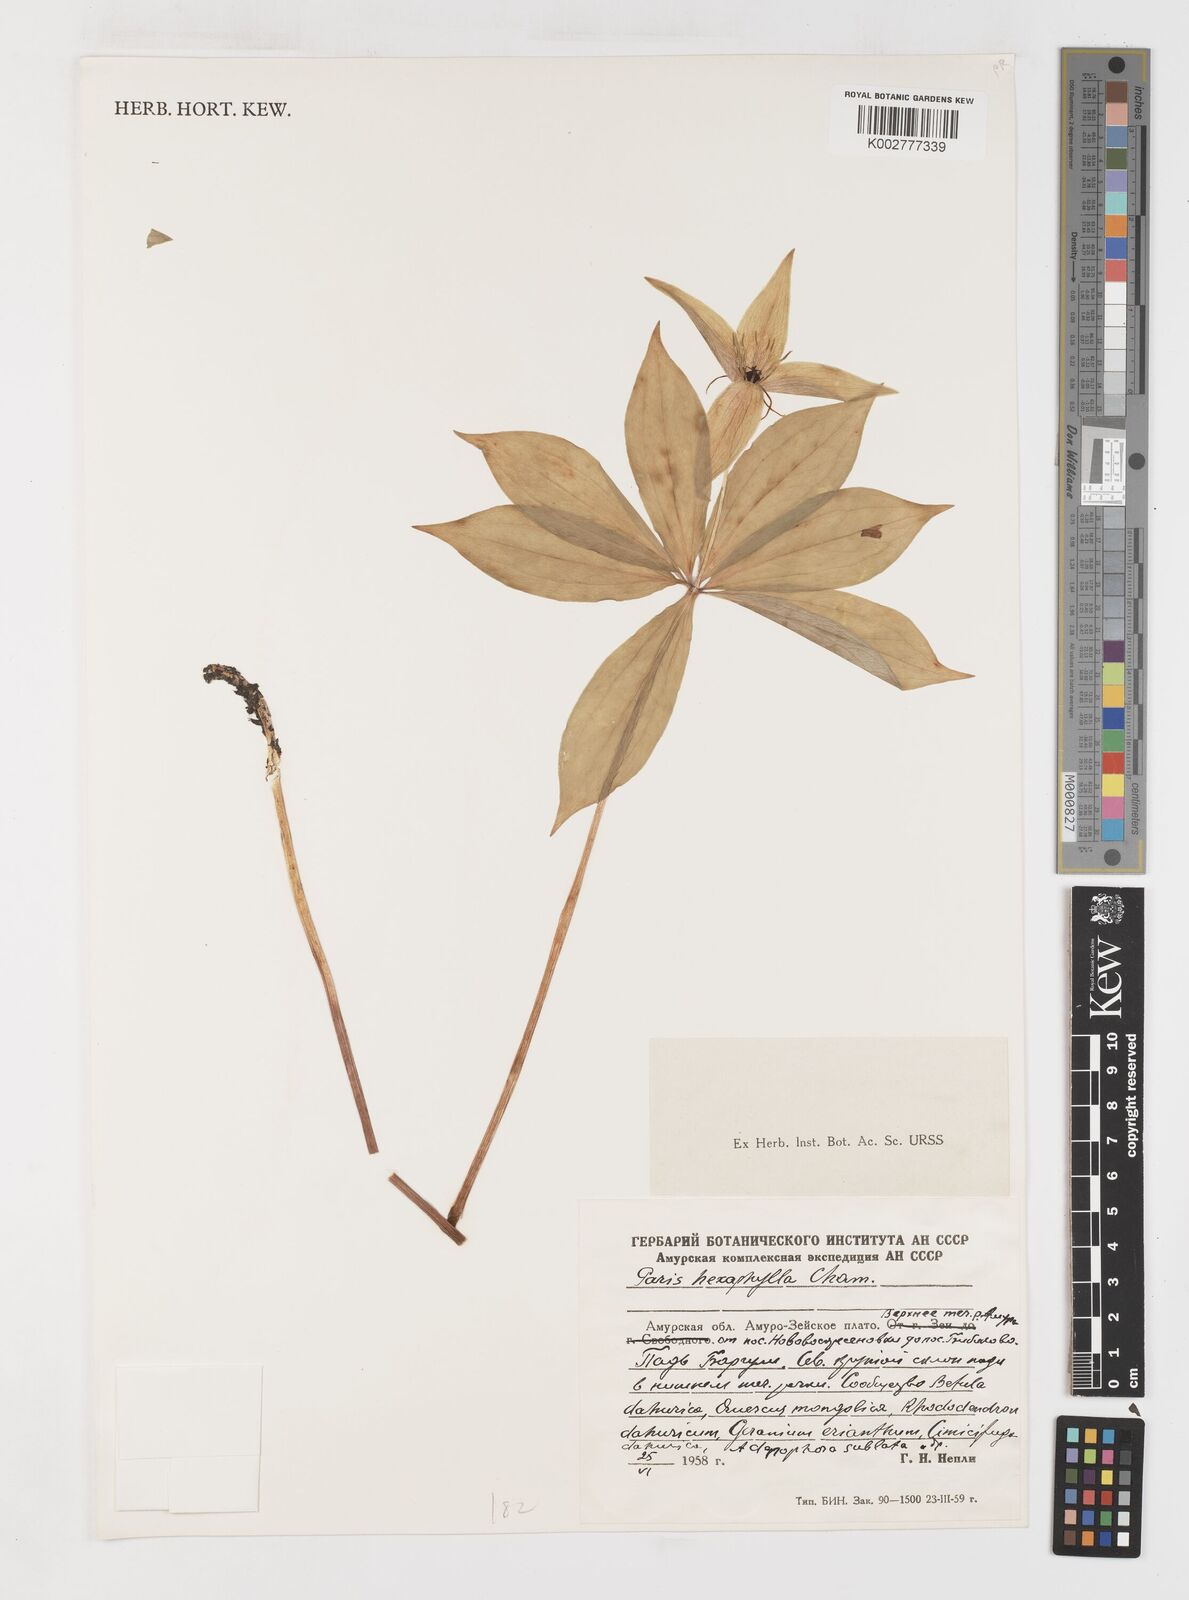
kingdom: Plantae
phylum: Tracheophyta
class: Liliopsida
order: Liliales
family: Melanthiaceae
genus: Paris
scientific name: Paris verticillata
